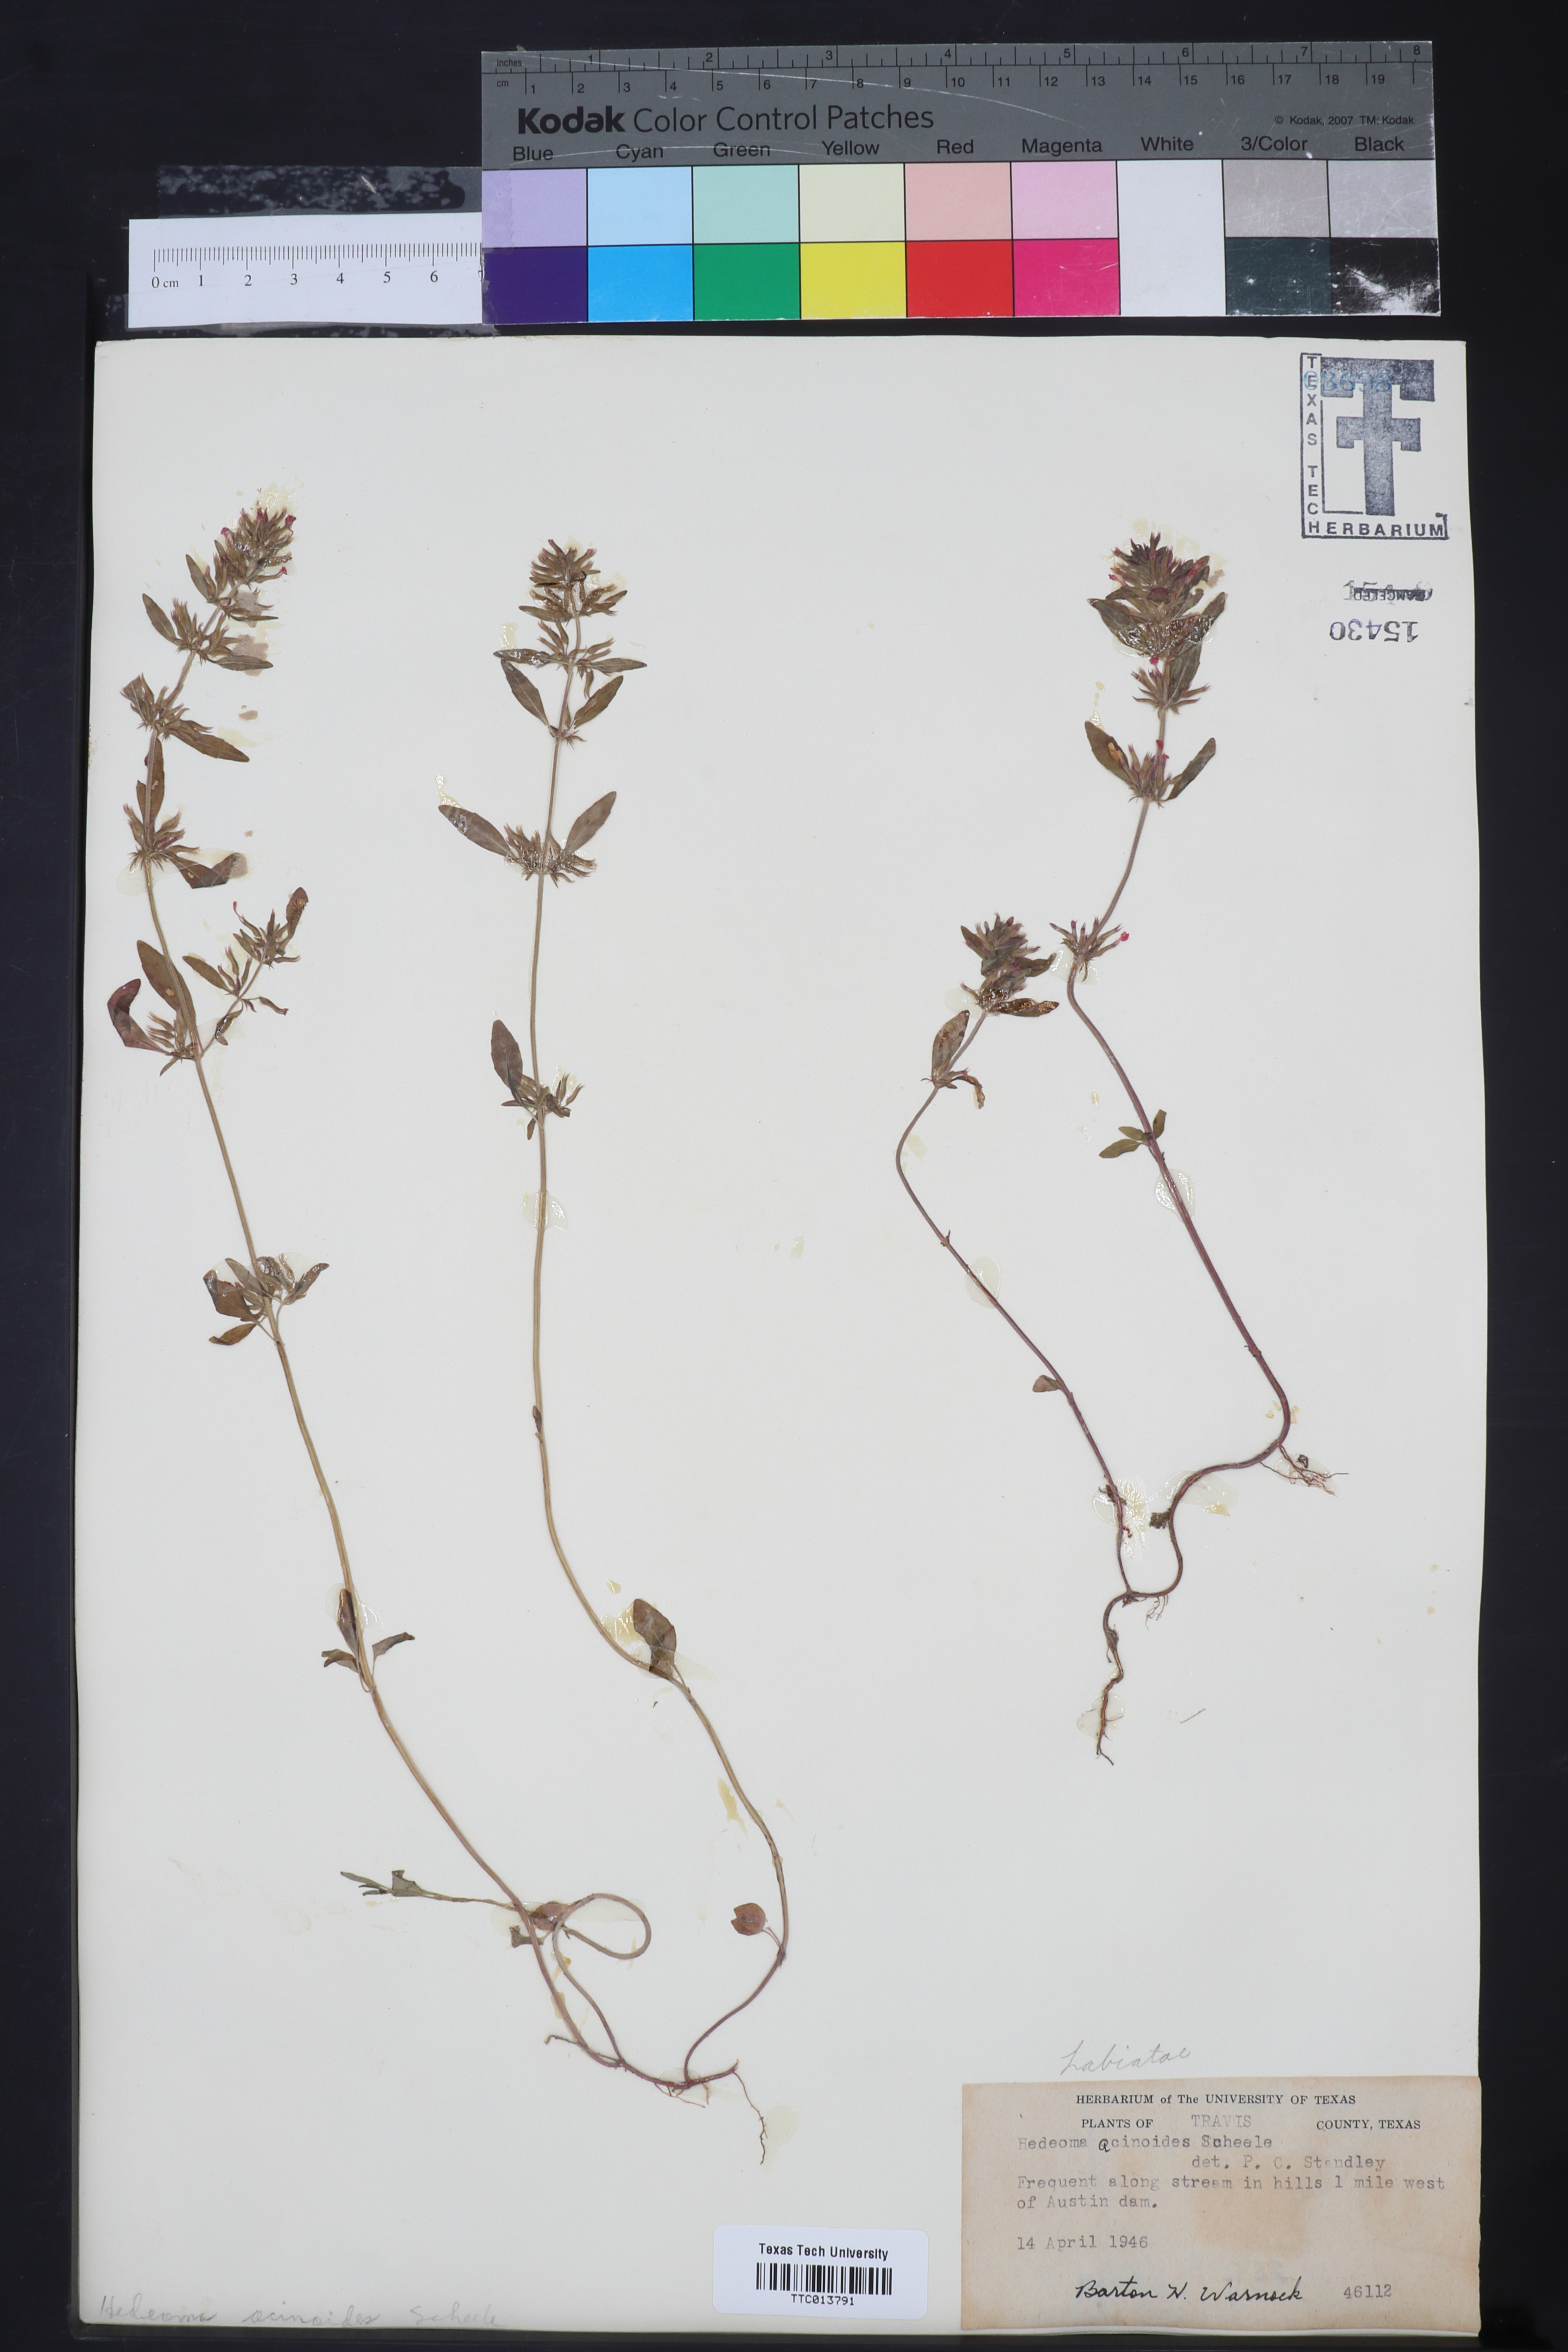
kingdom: Plantae
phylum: Tracheophyta
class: Magnoliopsida
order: Lamiales
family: Lamiaceae
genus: Hedeoma
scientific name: Hedeoma acinoides
